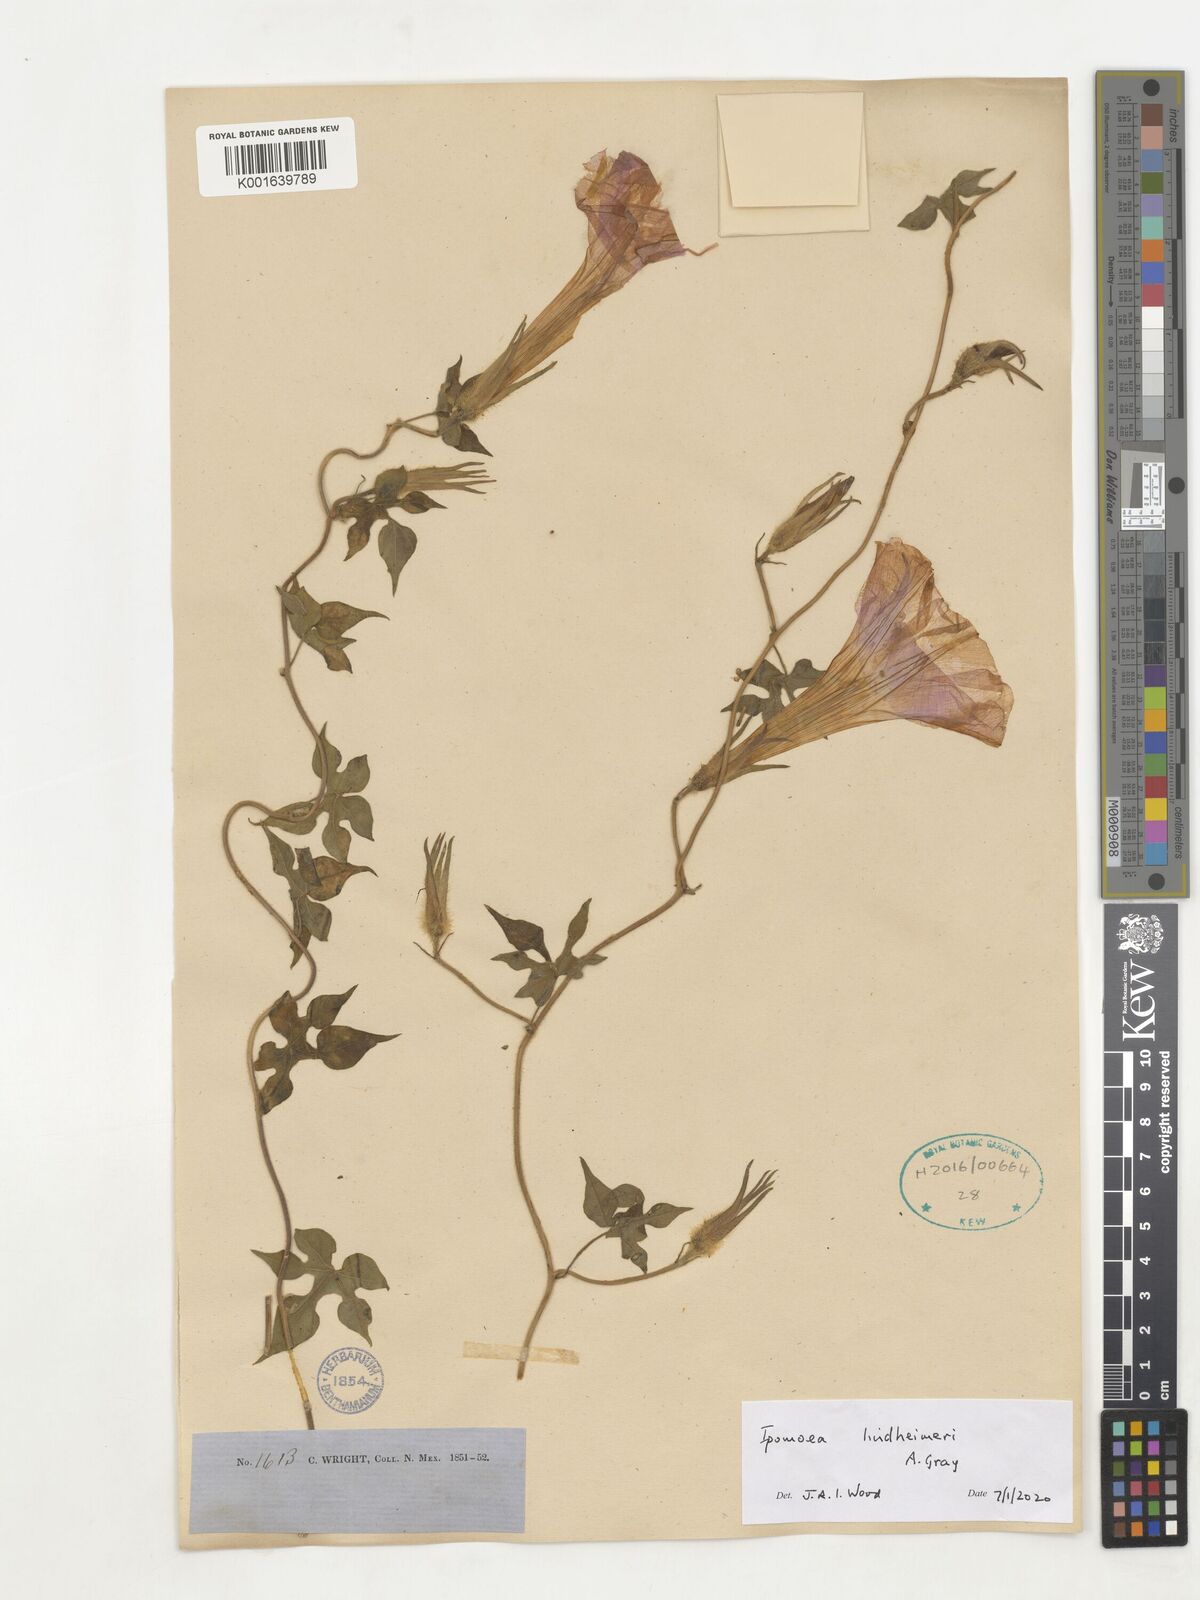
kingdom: Plantae
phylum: Tracheophyta
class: Magnoliopsida
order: Solanales
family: Convolvulaceae
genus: Ipomoea
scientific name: Ipomoea lindheimeri
